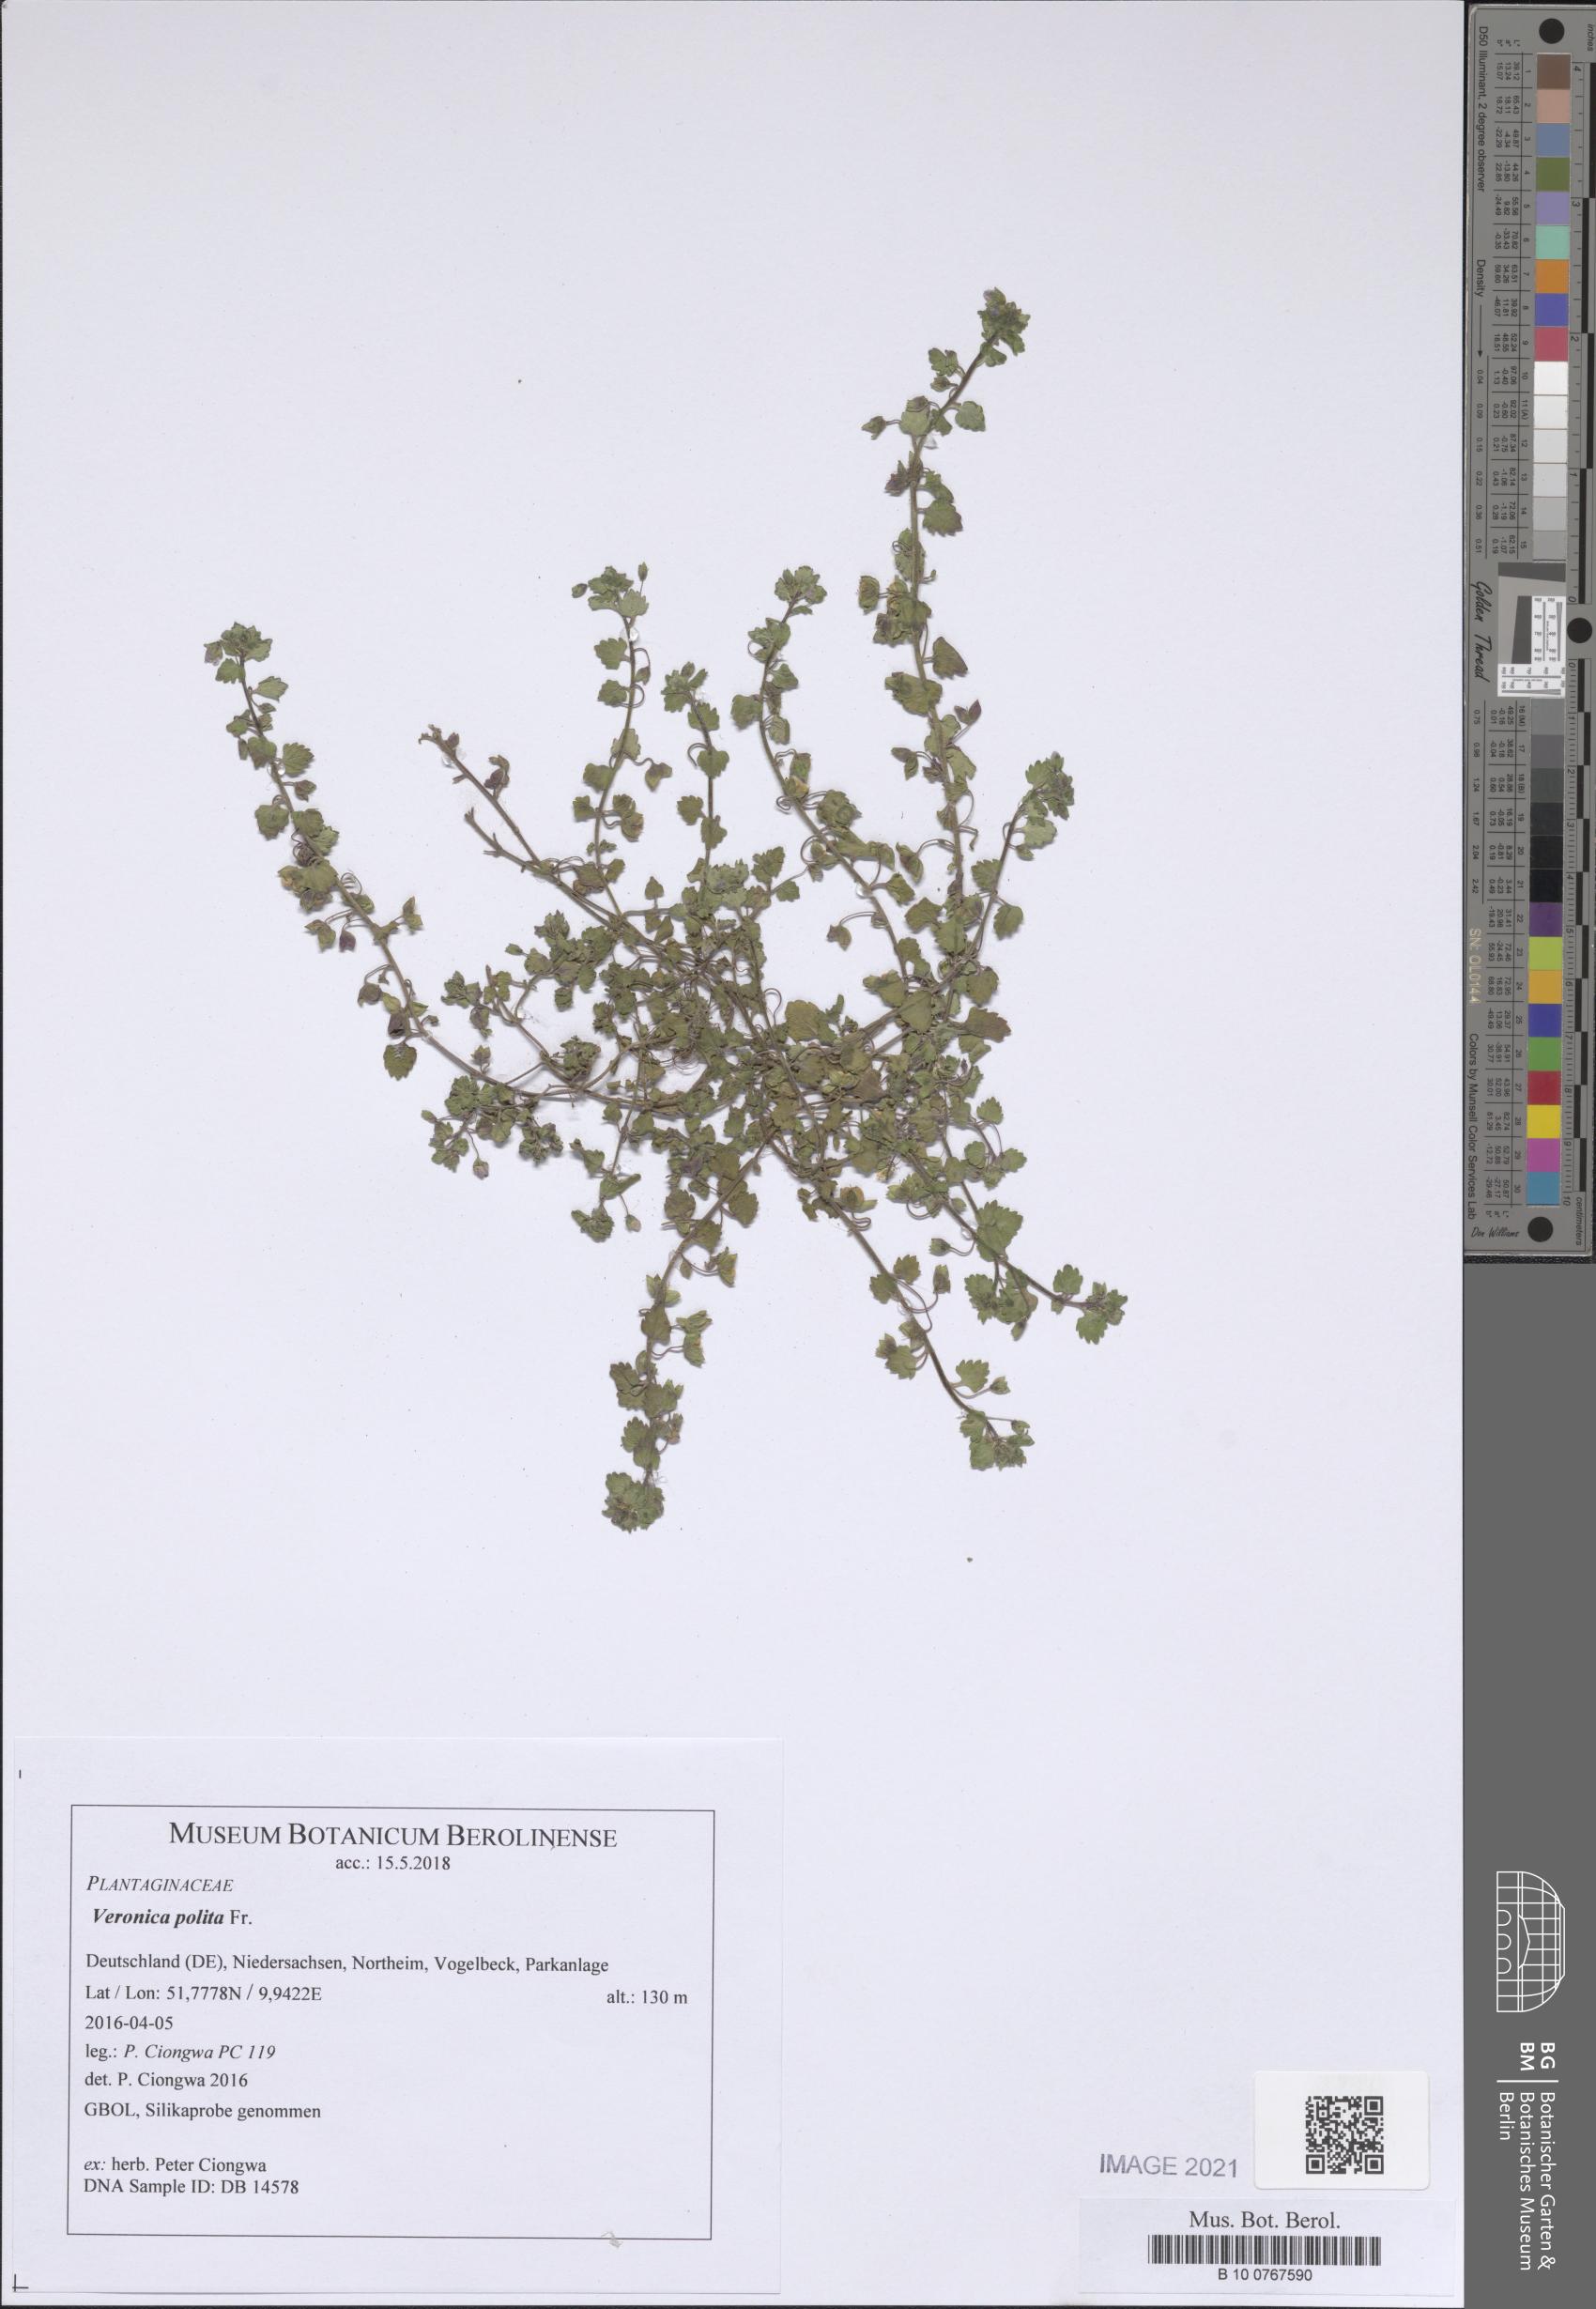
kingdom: Plantae
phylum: Tracheophyta
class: Magnoliopsida
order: Lamiales
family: Plantaginaceae
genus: Veronica
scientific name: Veronica polita
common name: Grey field-speedwell
